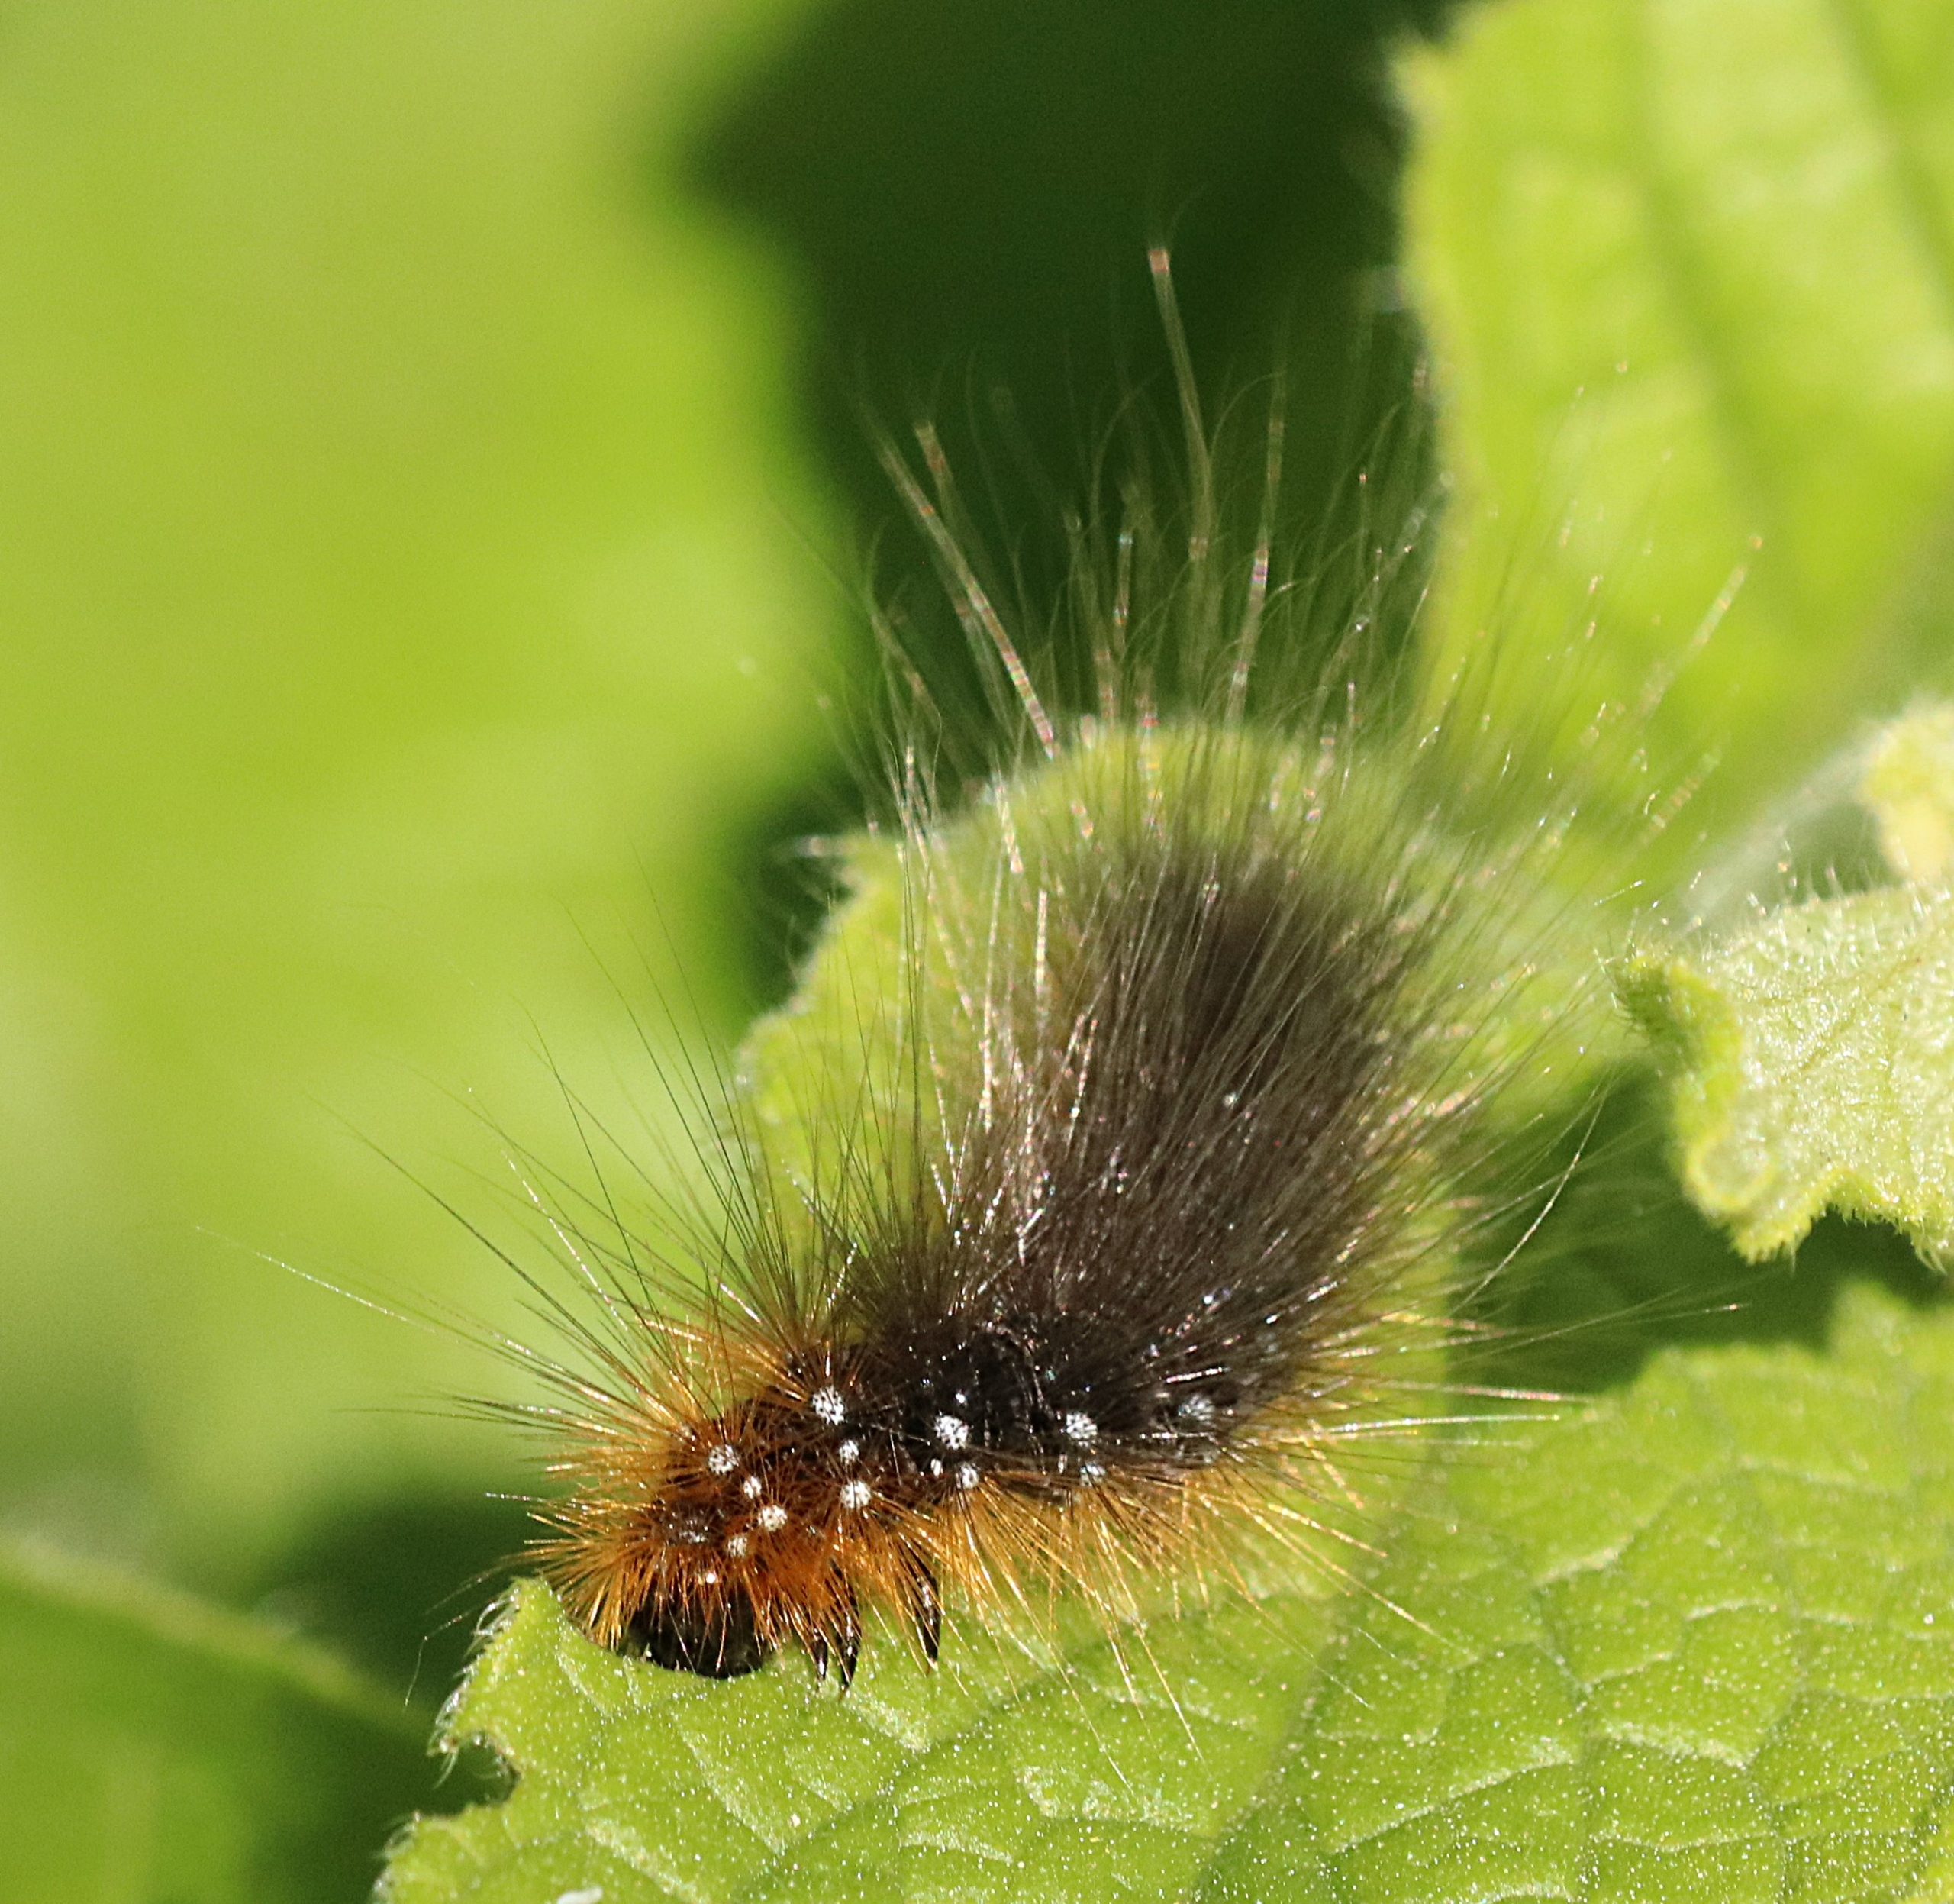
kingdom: Animalia
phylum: Arthropoda
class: Insecta
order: Lepidoptera
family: Erebidae
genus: Arctia
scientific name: Arctia caja
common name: Brun bjørn
